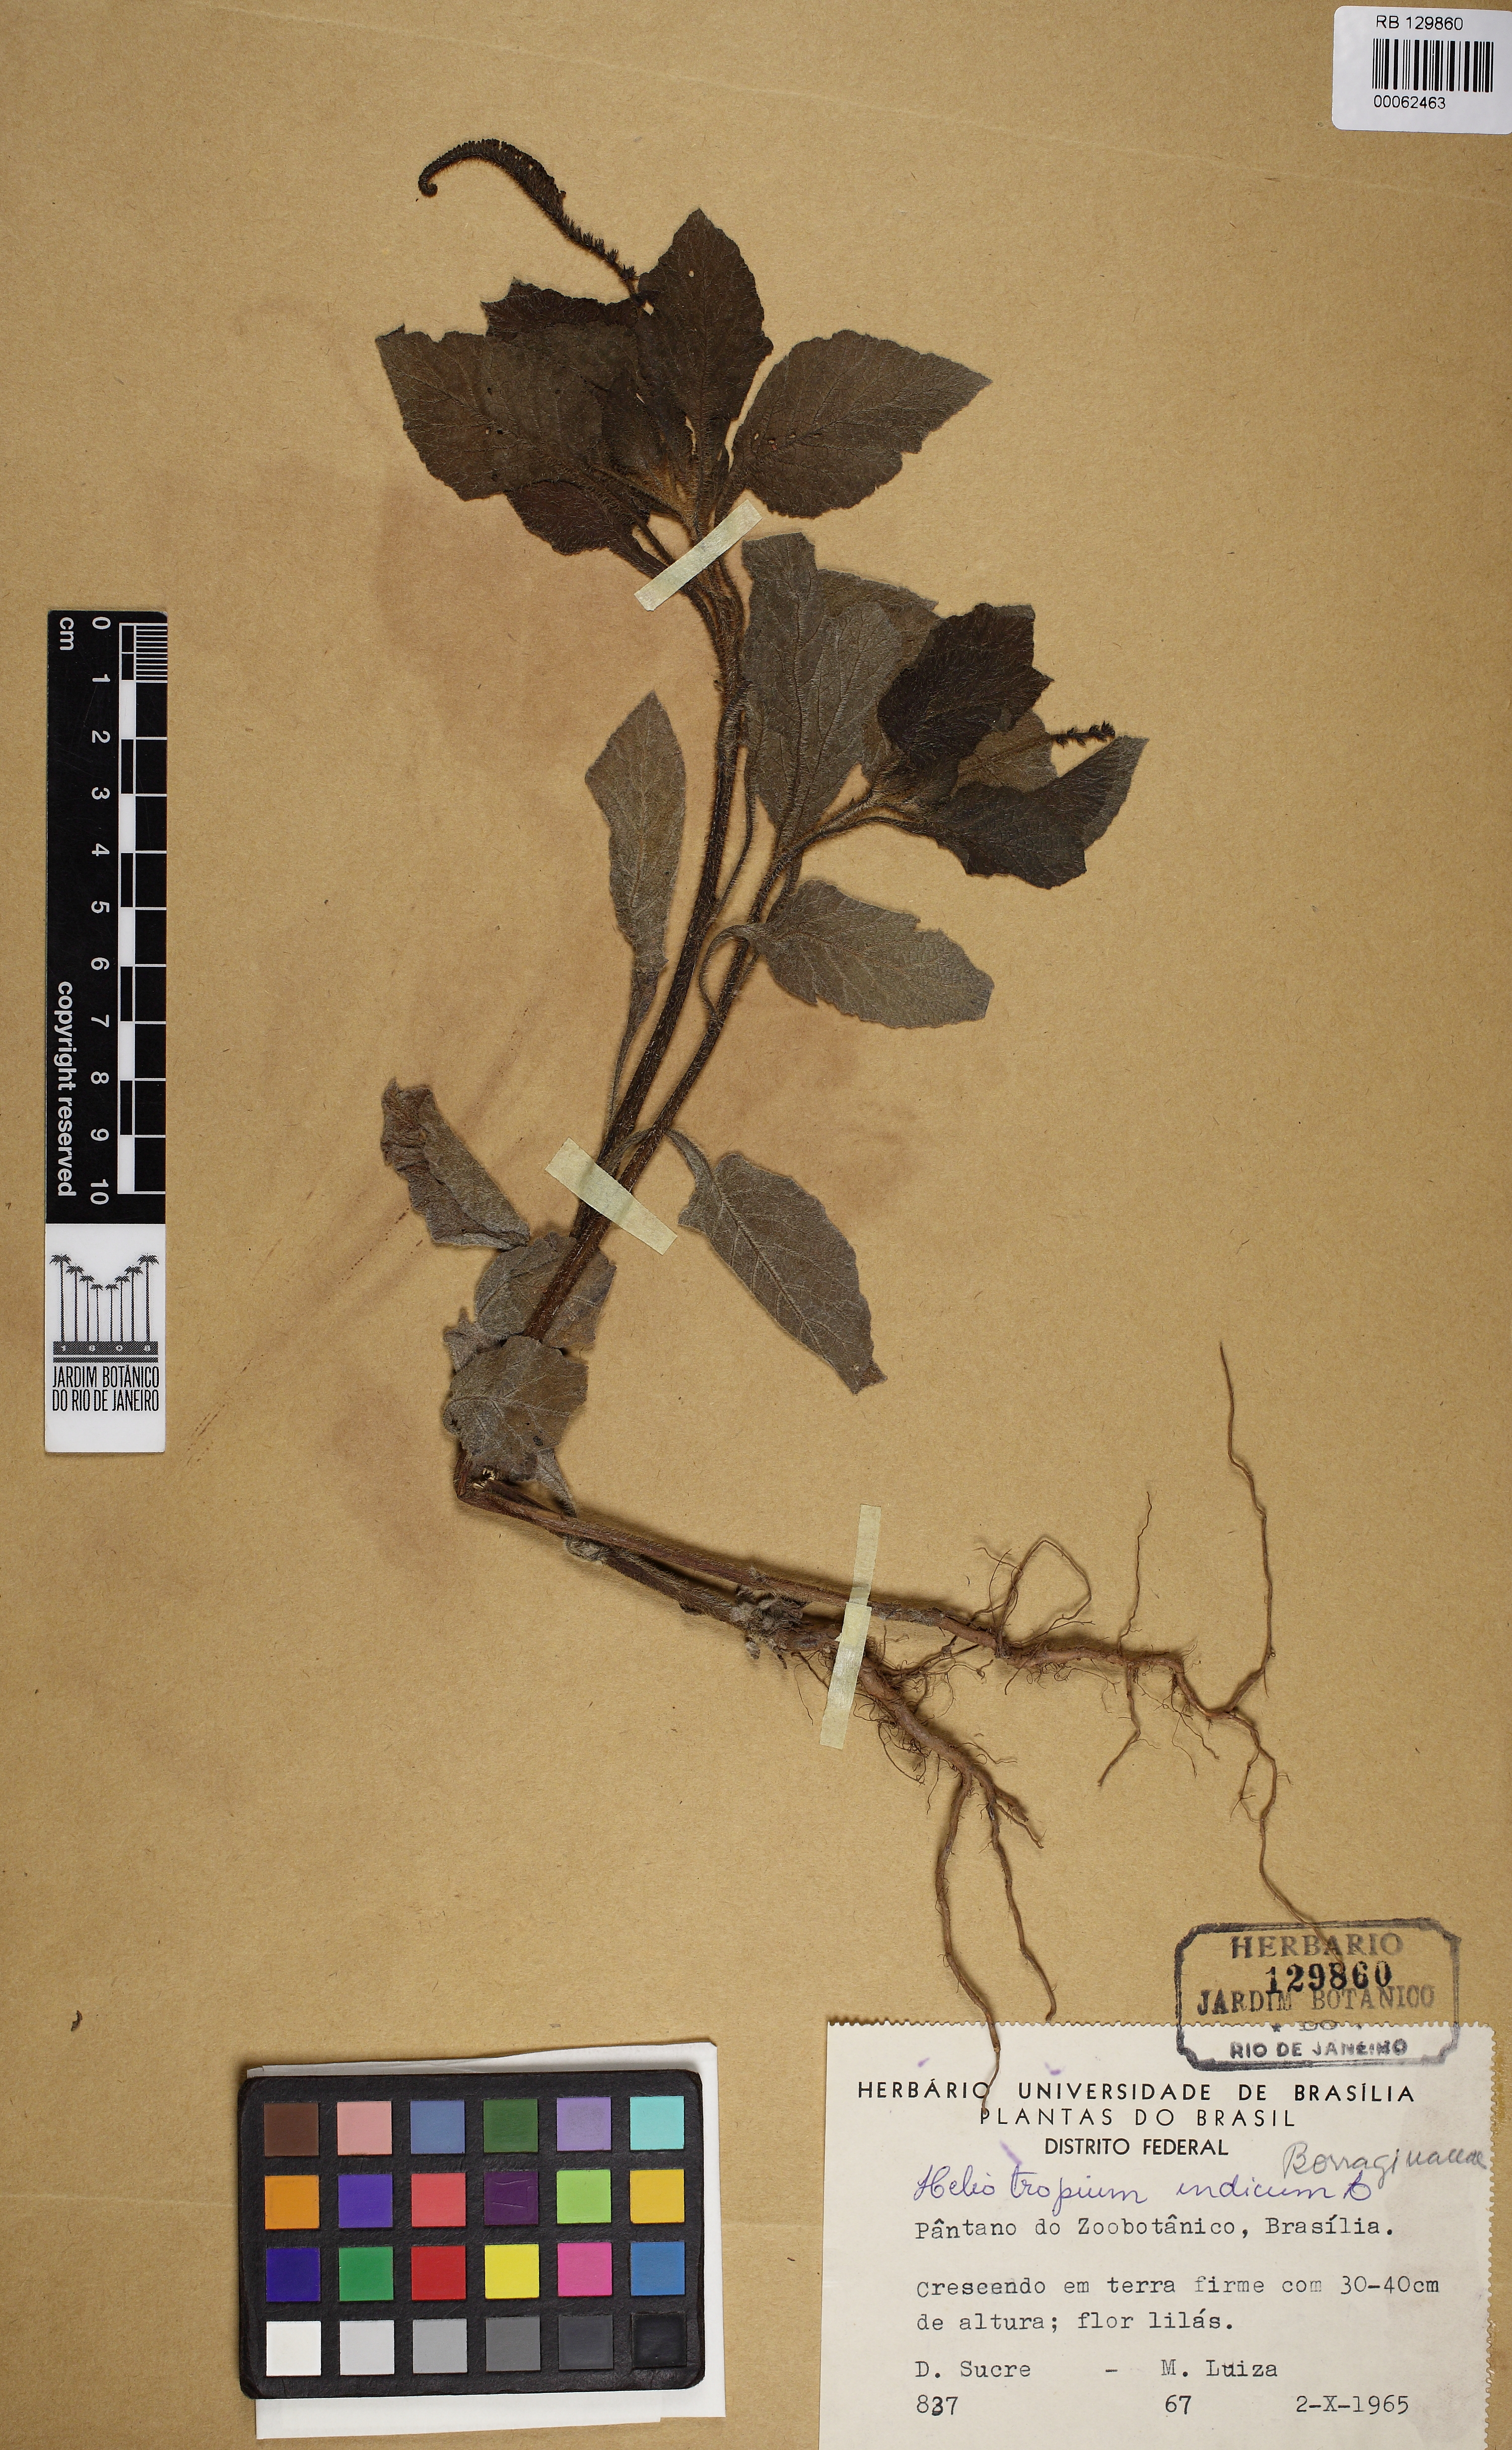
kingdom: Plantae
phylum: Tracheophyta
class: Magnoliopsida
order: Boraginales
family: Heliotropiaceae
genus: Heliotropium
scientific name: Heliotropium indicum
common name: Indian heliotrope
